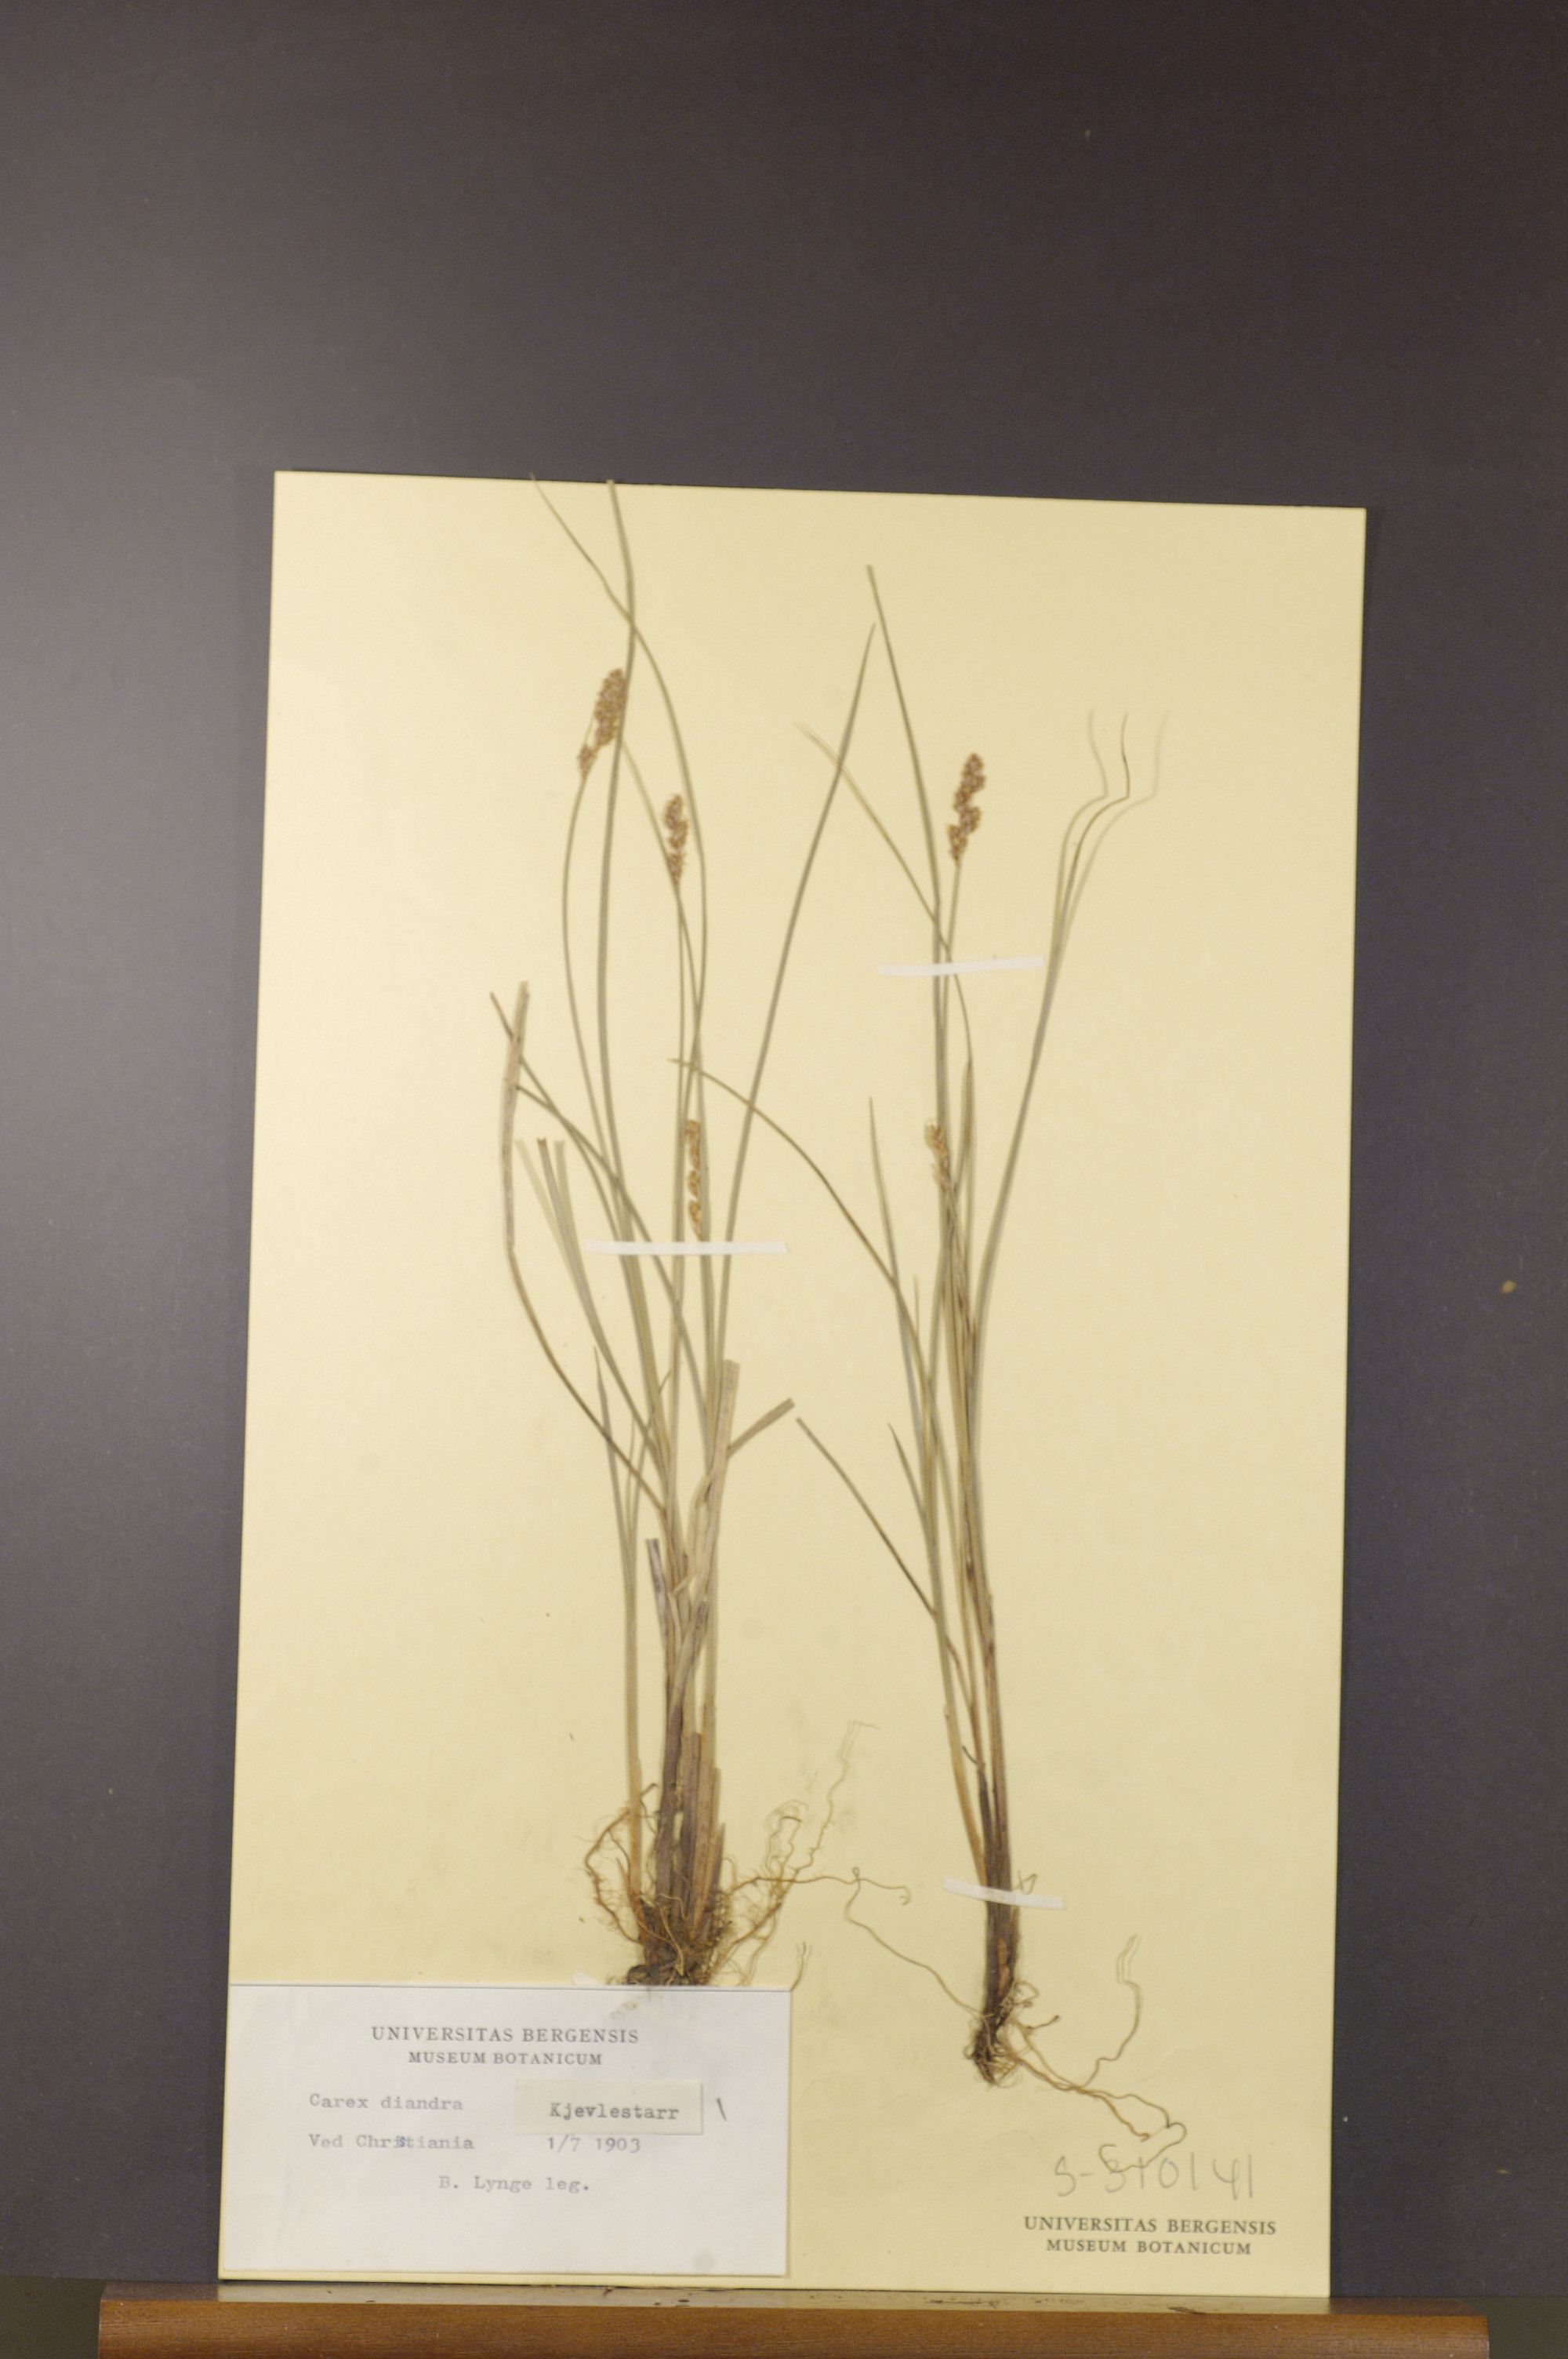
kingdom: Plantae
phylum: Tracheophyta
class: Liliopsida
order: Poales
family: Cyperaceae
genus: Carex
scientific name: Carex diandra
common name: Lesser tussock-sedge
